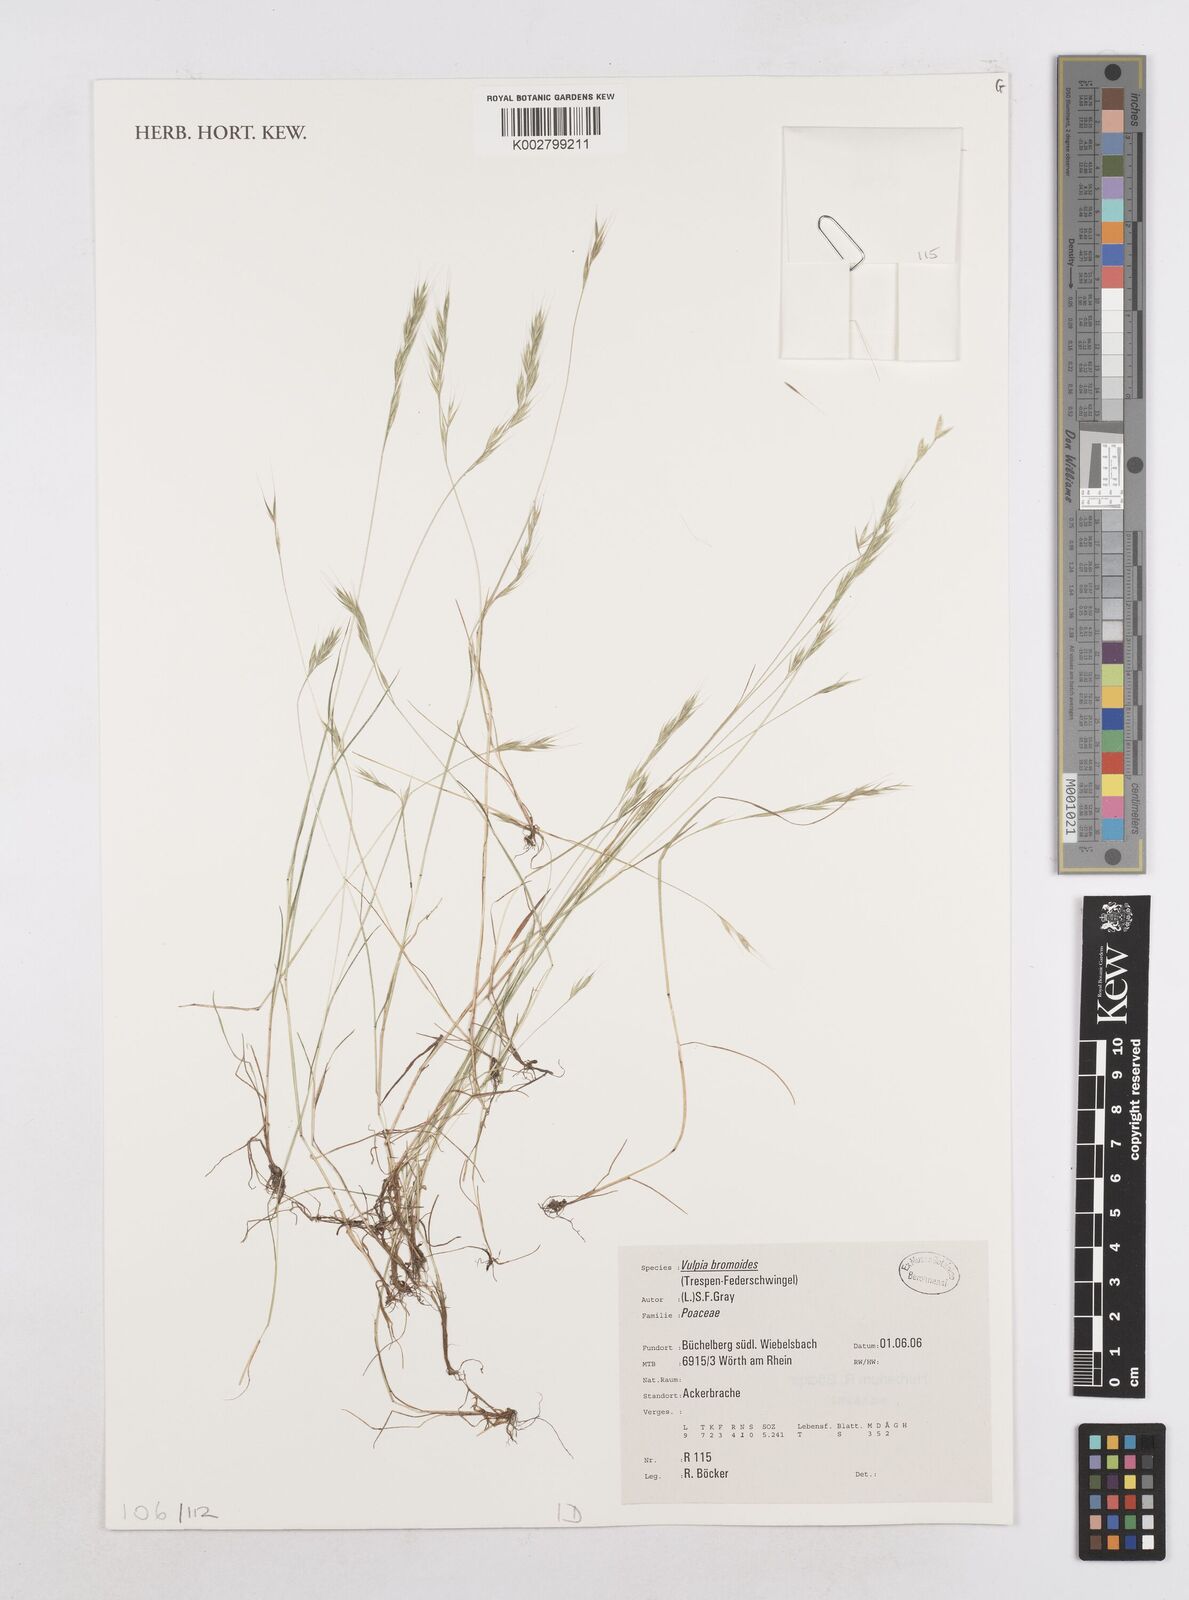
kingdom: Plantae
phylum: Tracheophyta
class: Liliopsida
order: Poales
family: Poaceae
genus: Festuca
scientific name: Festuca bromoides
